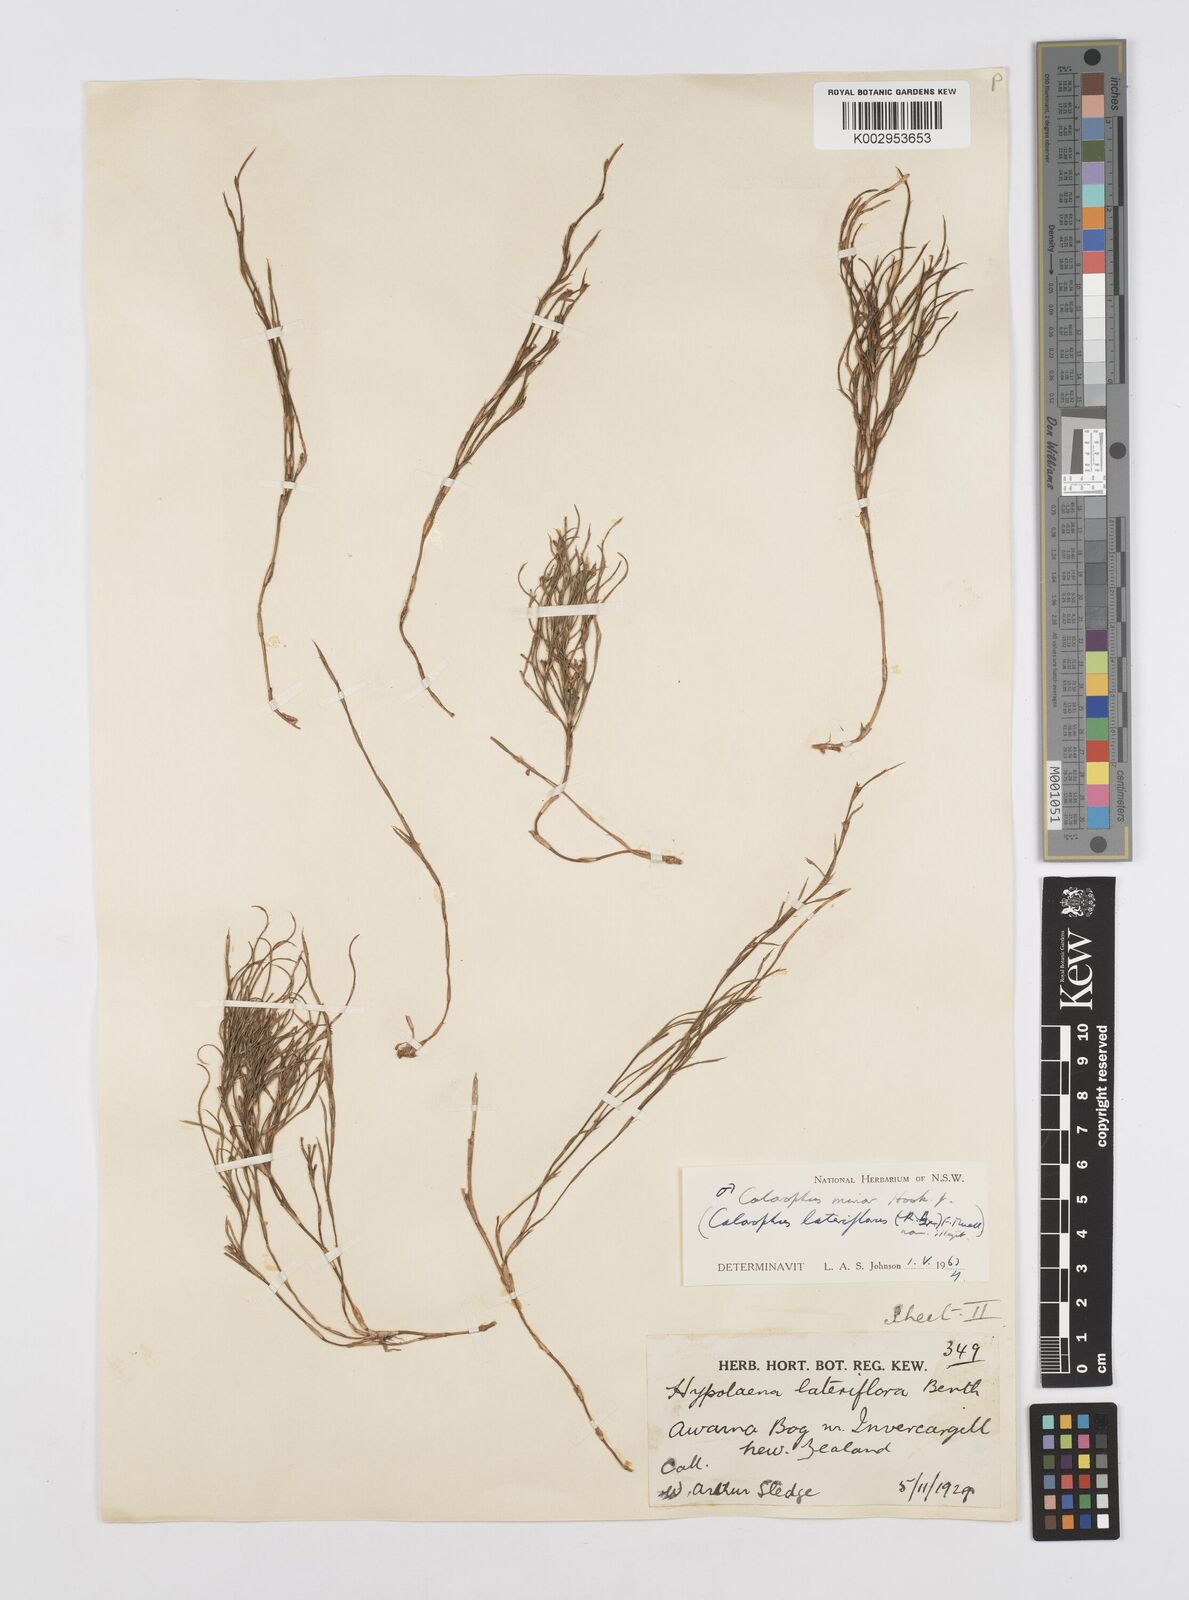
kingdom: Plantae
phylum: Tracheophyta
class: Liliopsida
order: Poales
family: Restionaceae
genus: Empodisma
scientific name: Empodisma minus
